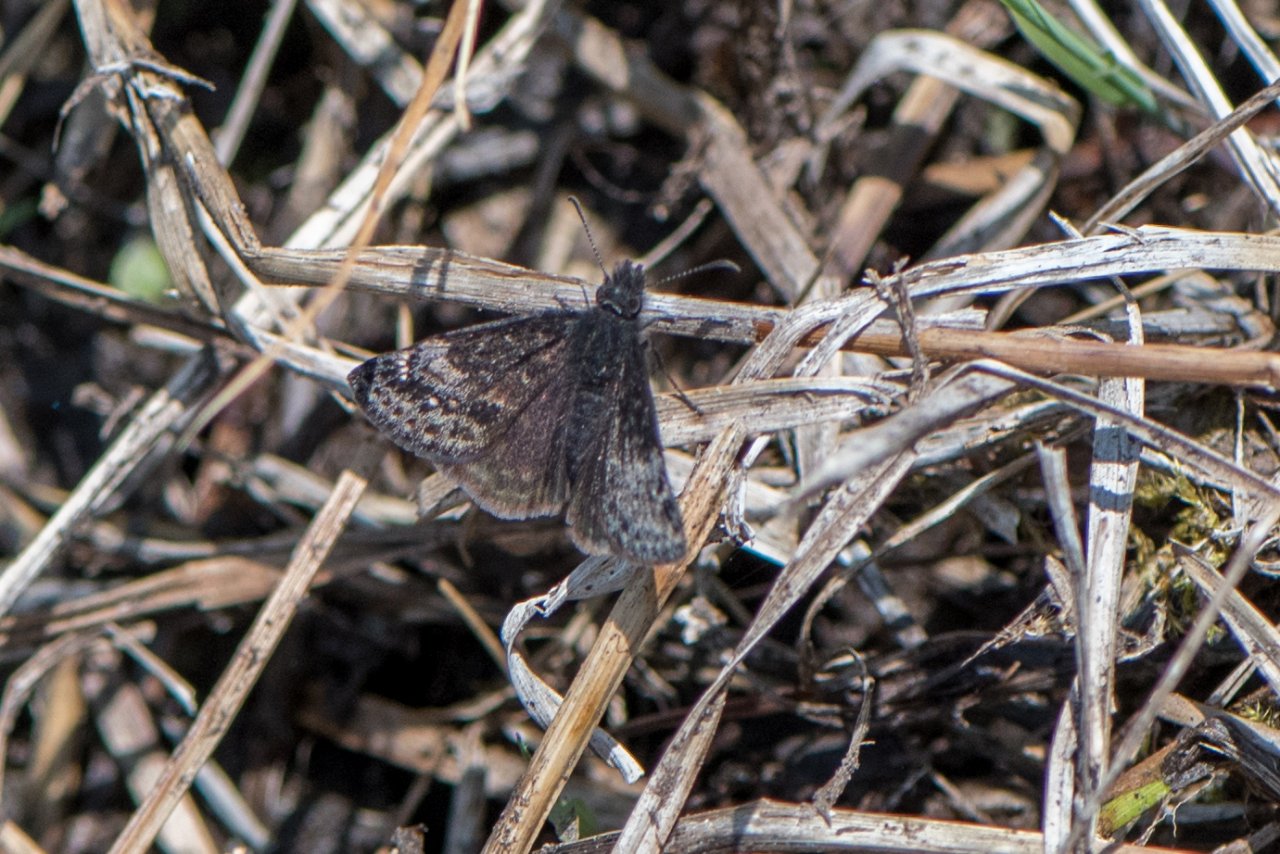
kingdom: Animalia
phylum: Arthropoda
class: Insecta
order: Lepidoptera
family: Hesperiidae
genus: Gesta
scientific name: Gesta
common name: Columbine Duskywing
